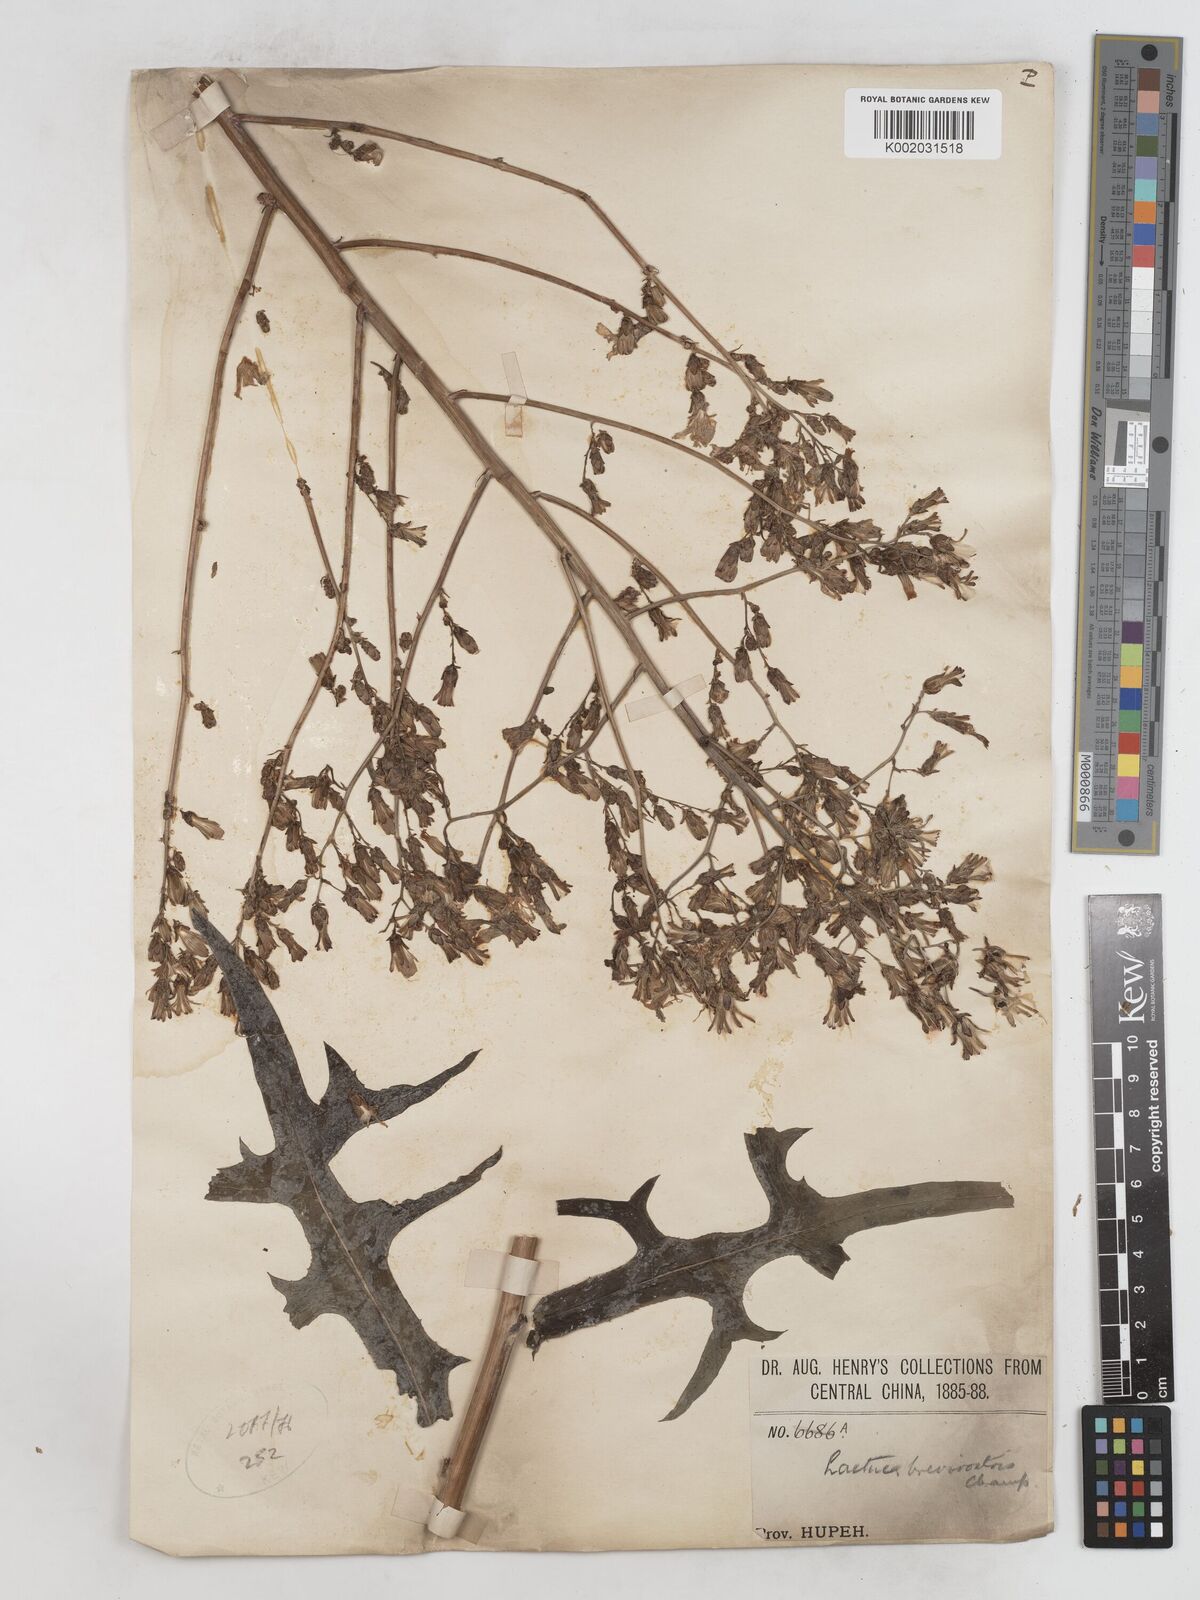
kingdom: Plantae
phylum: Tracheophyta
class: Magnoliopsida
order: Asterales
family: Asteraceae
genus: Lactuca
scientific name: Lactuca indica
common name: Wild lettuce
